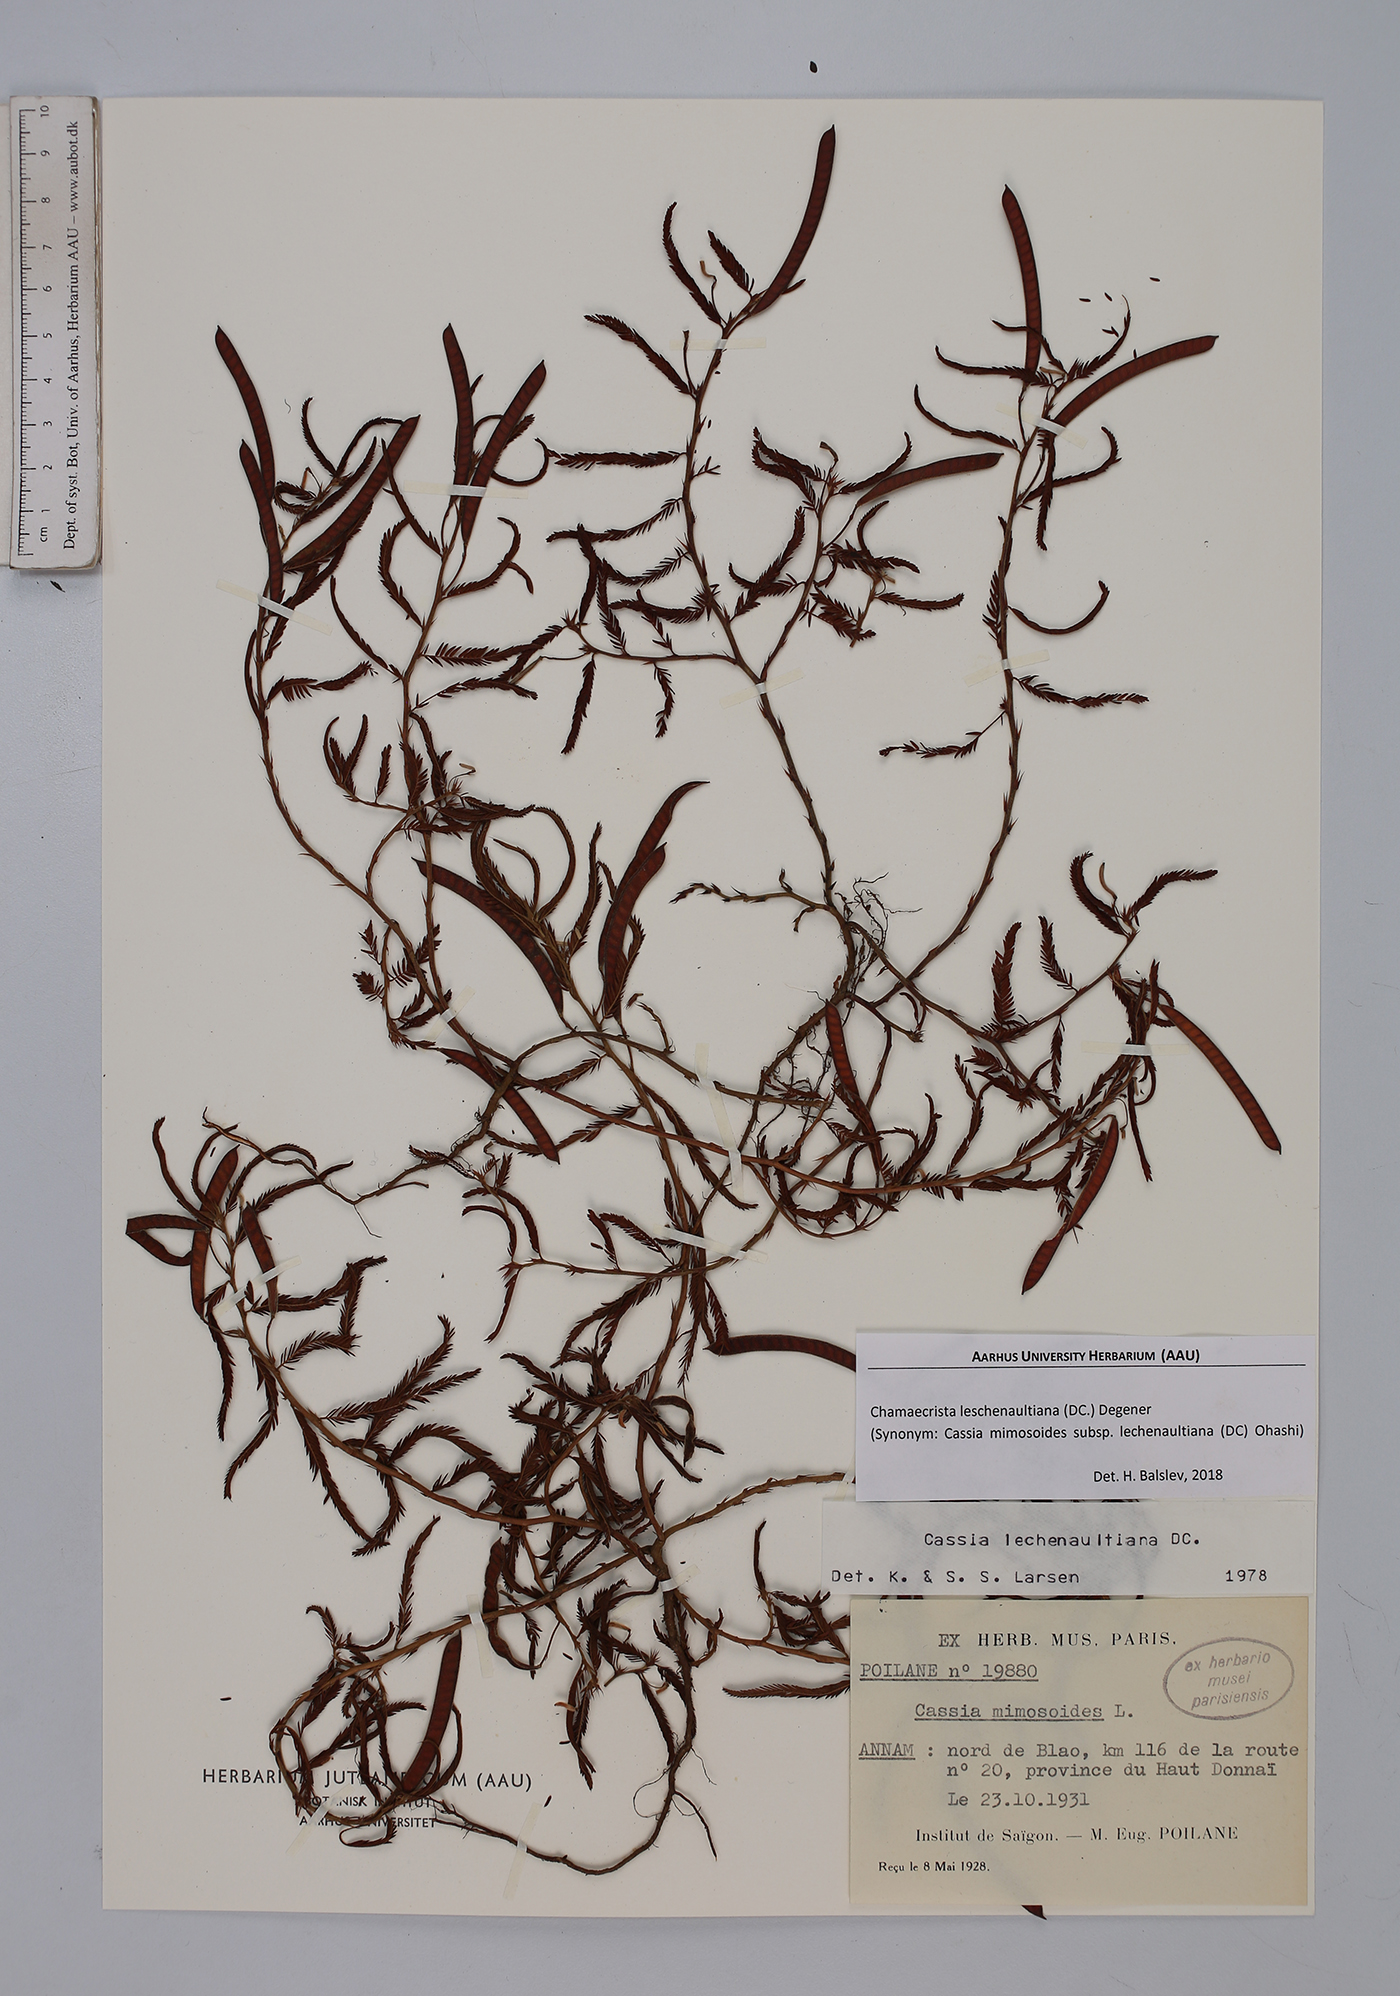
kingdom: Plantae
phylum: Tracheophyta
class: Magnoliopsida
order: Fabales
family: Fabaceae
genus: Chamaecrista
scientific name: Chamaecrista nictitans
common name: Sensitive cassia
